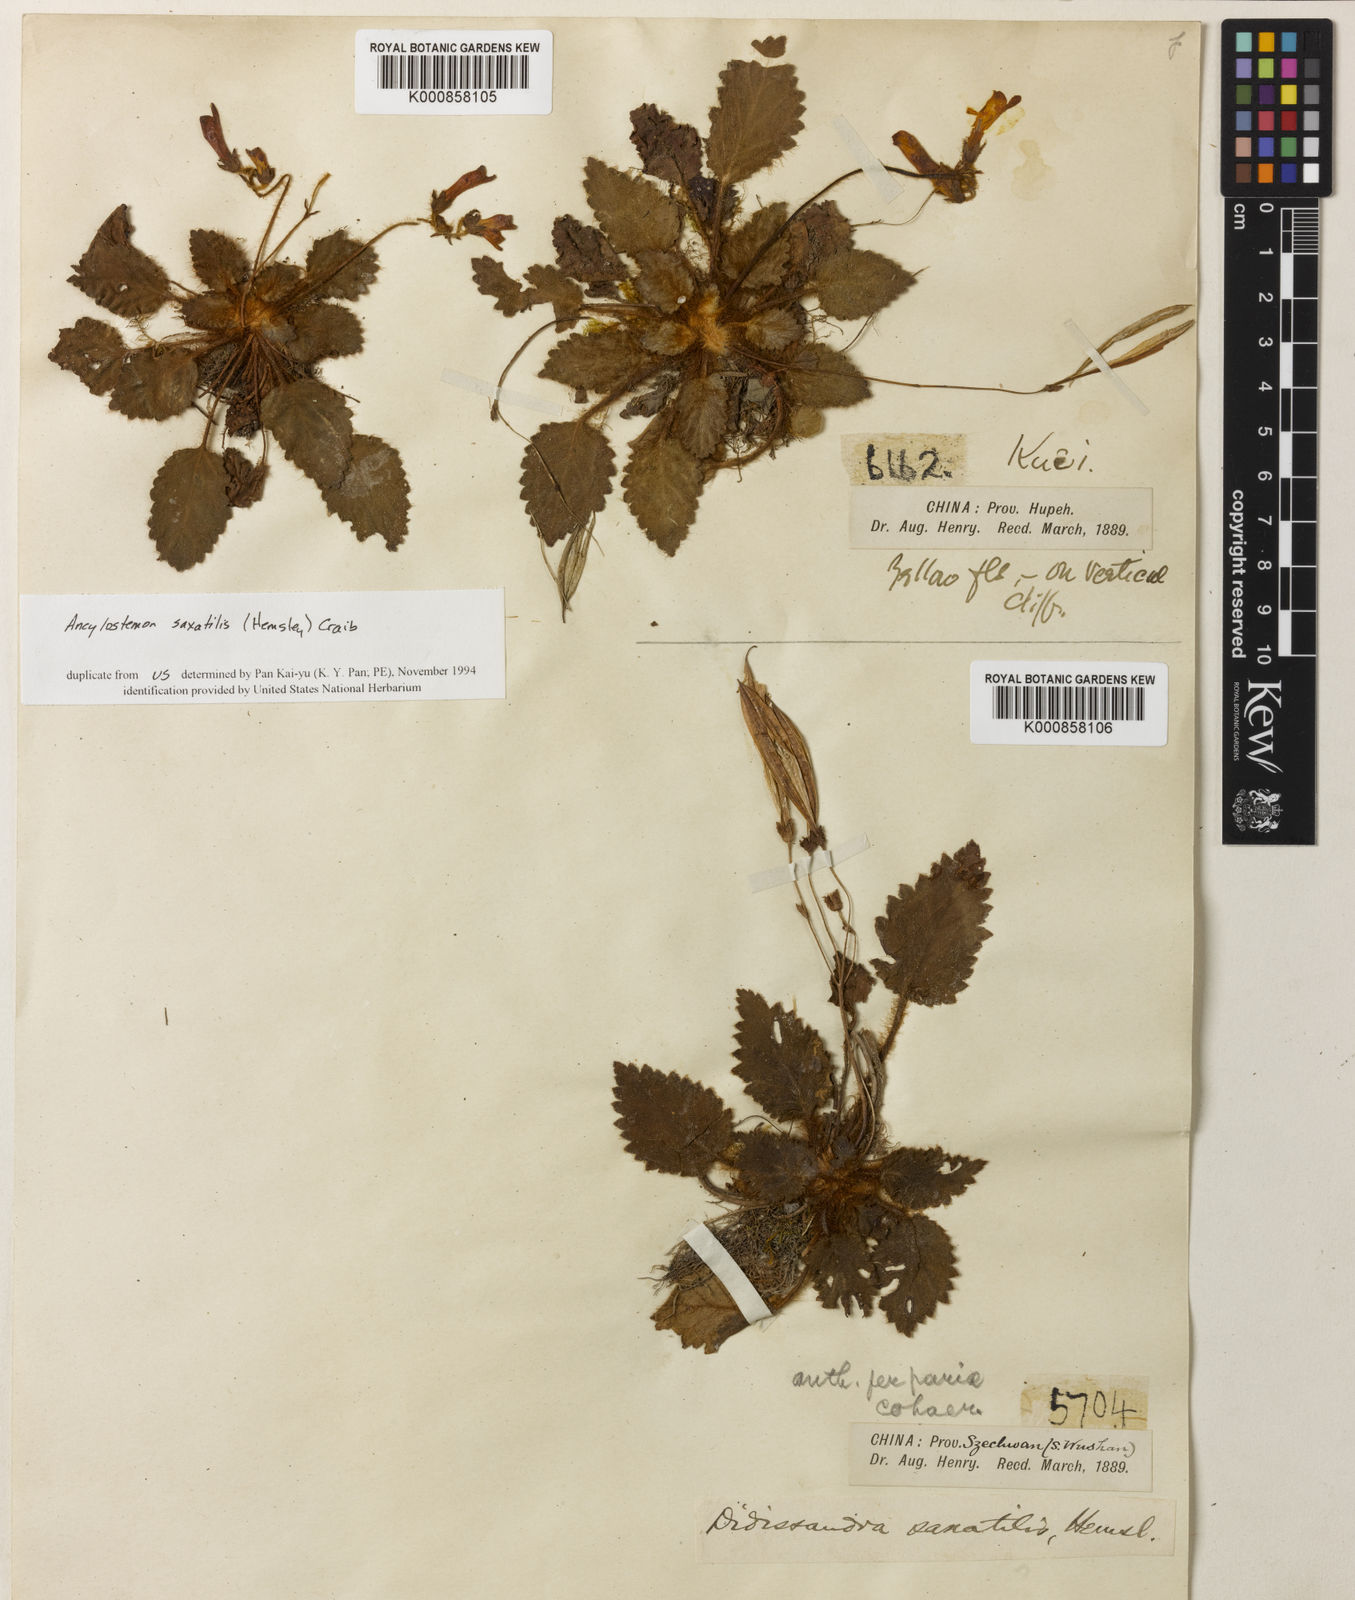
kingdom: Plantae
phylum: Tracheophyta
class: Magnoliopsida
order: Lamiales
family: Gesneriaceae
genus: Oreocharis
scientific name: Oreocharis
